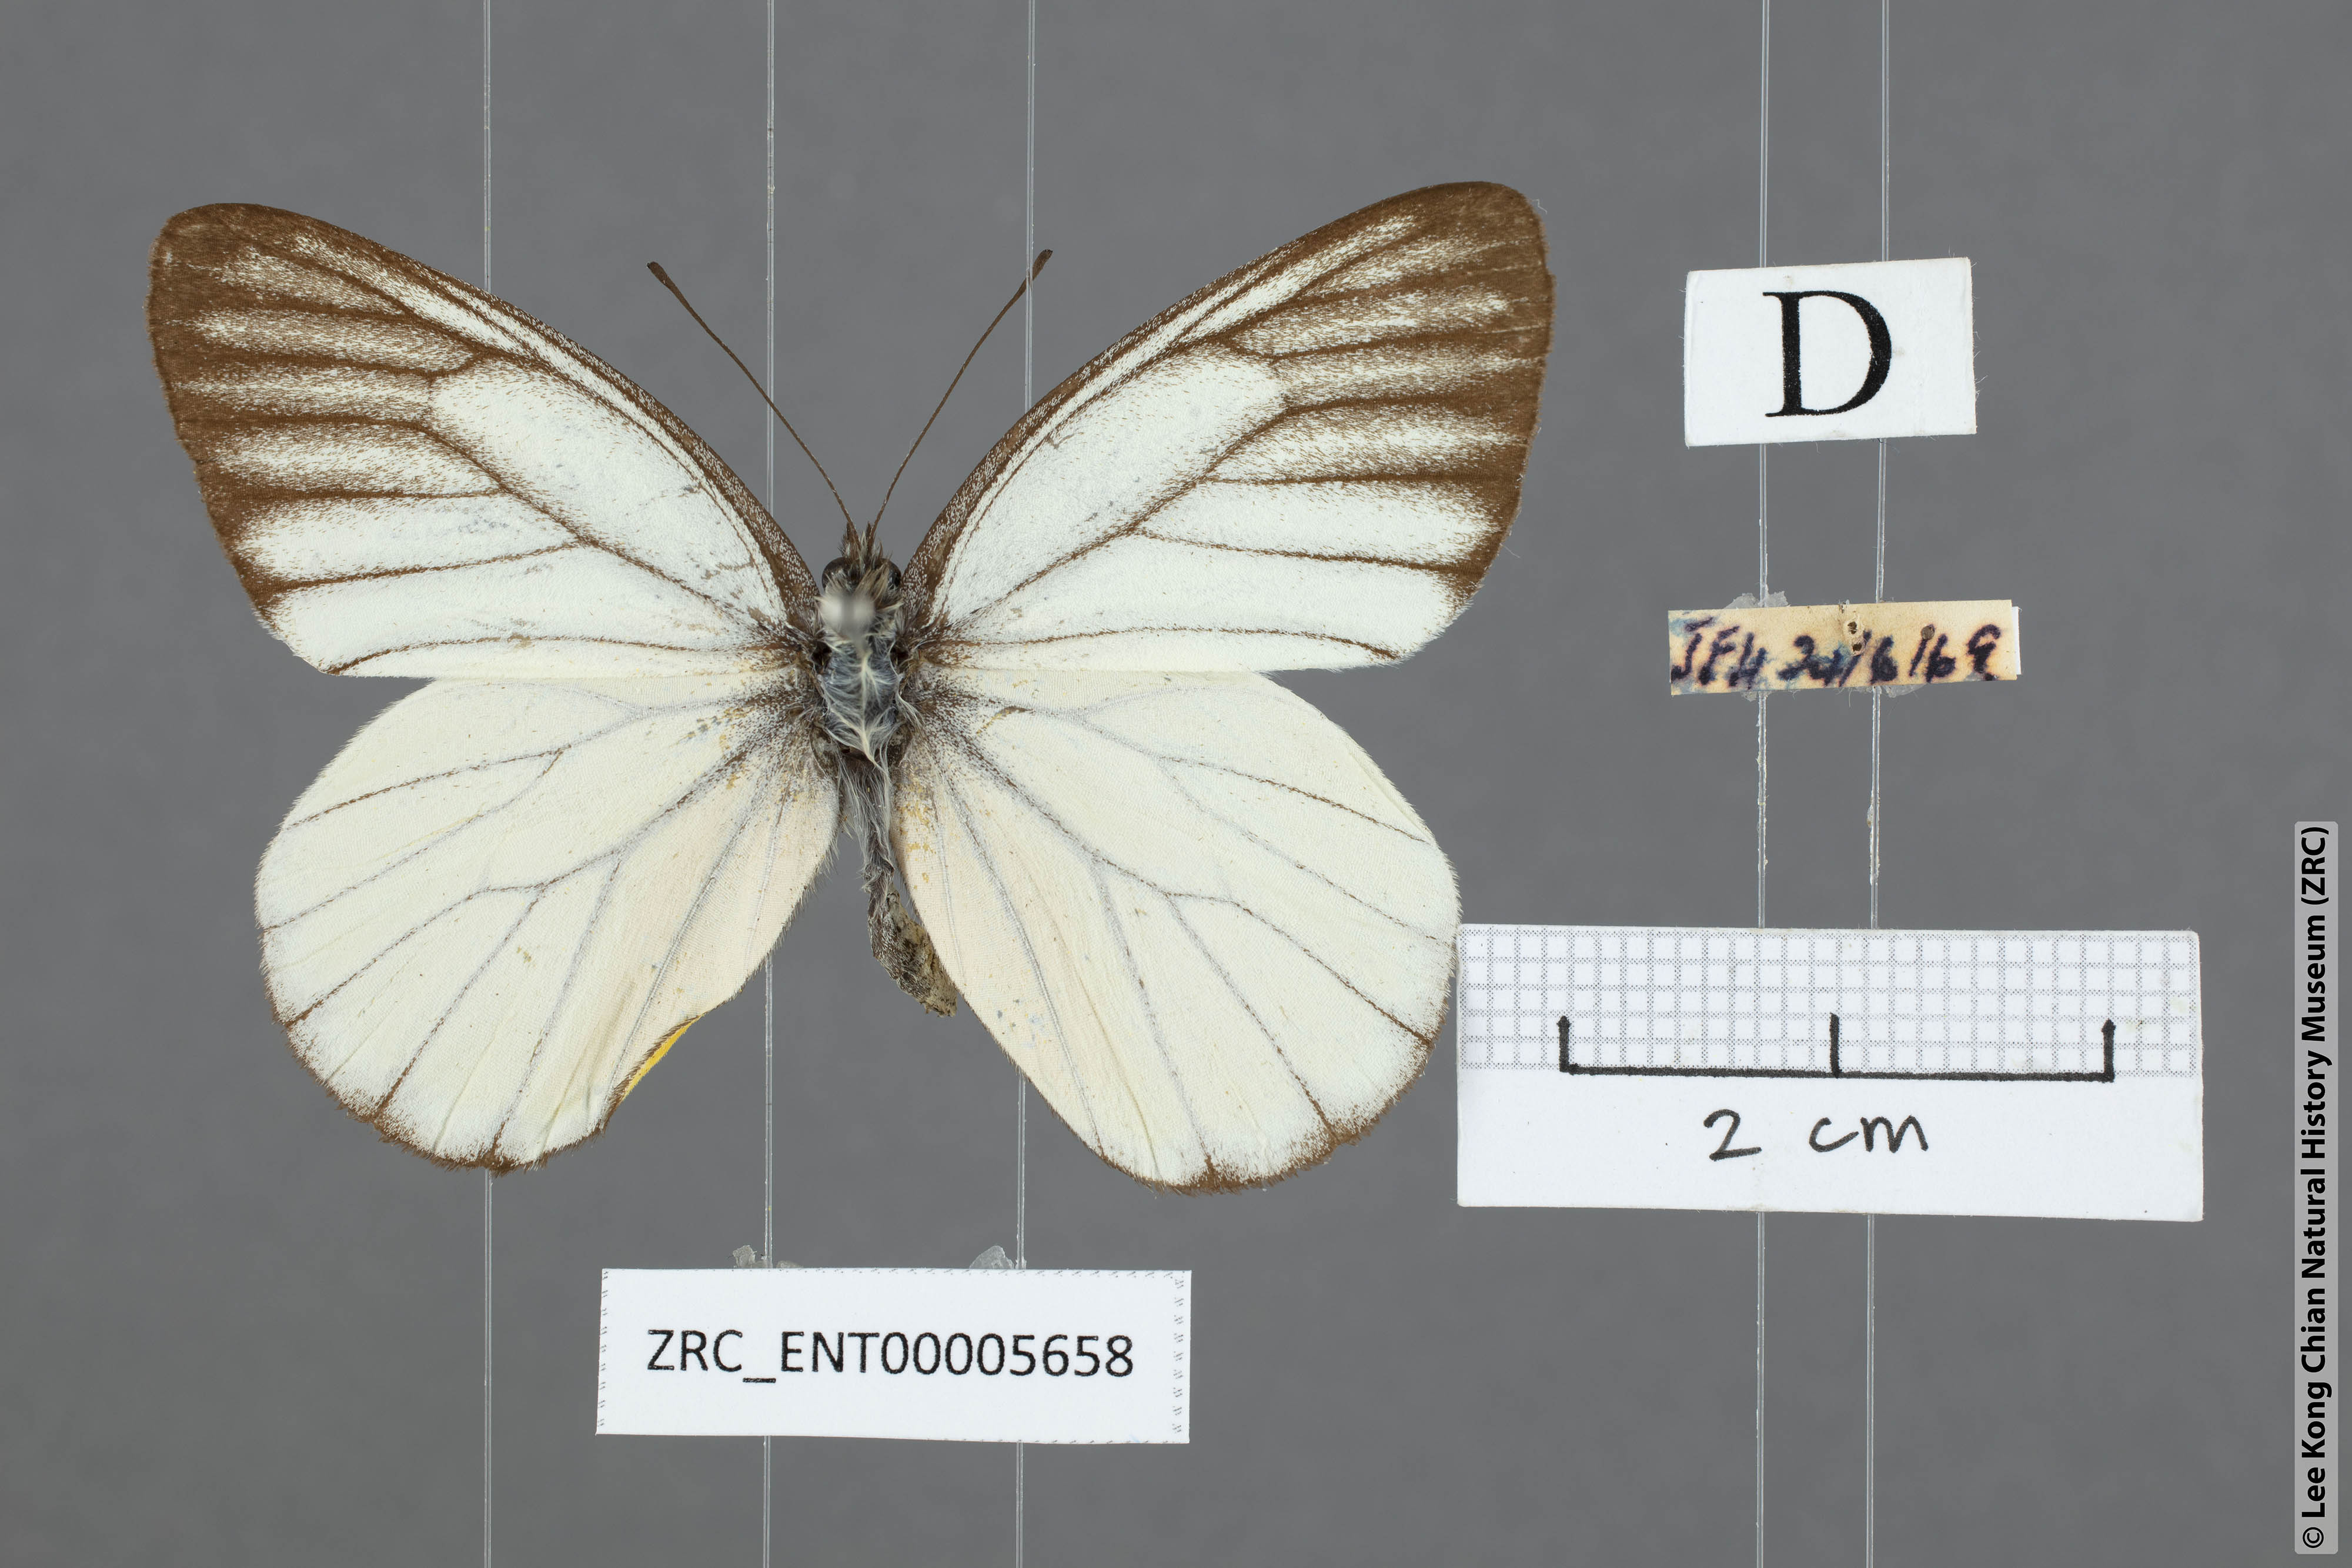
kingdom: Animalia
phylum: Arthropoda
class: Insecta
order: Lepidoptera
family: Pieridae
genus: Delias
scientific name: Delias baracasa
